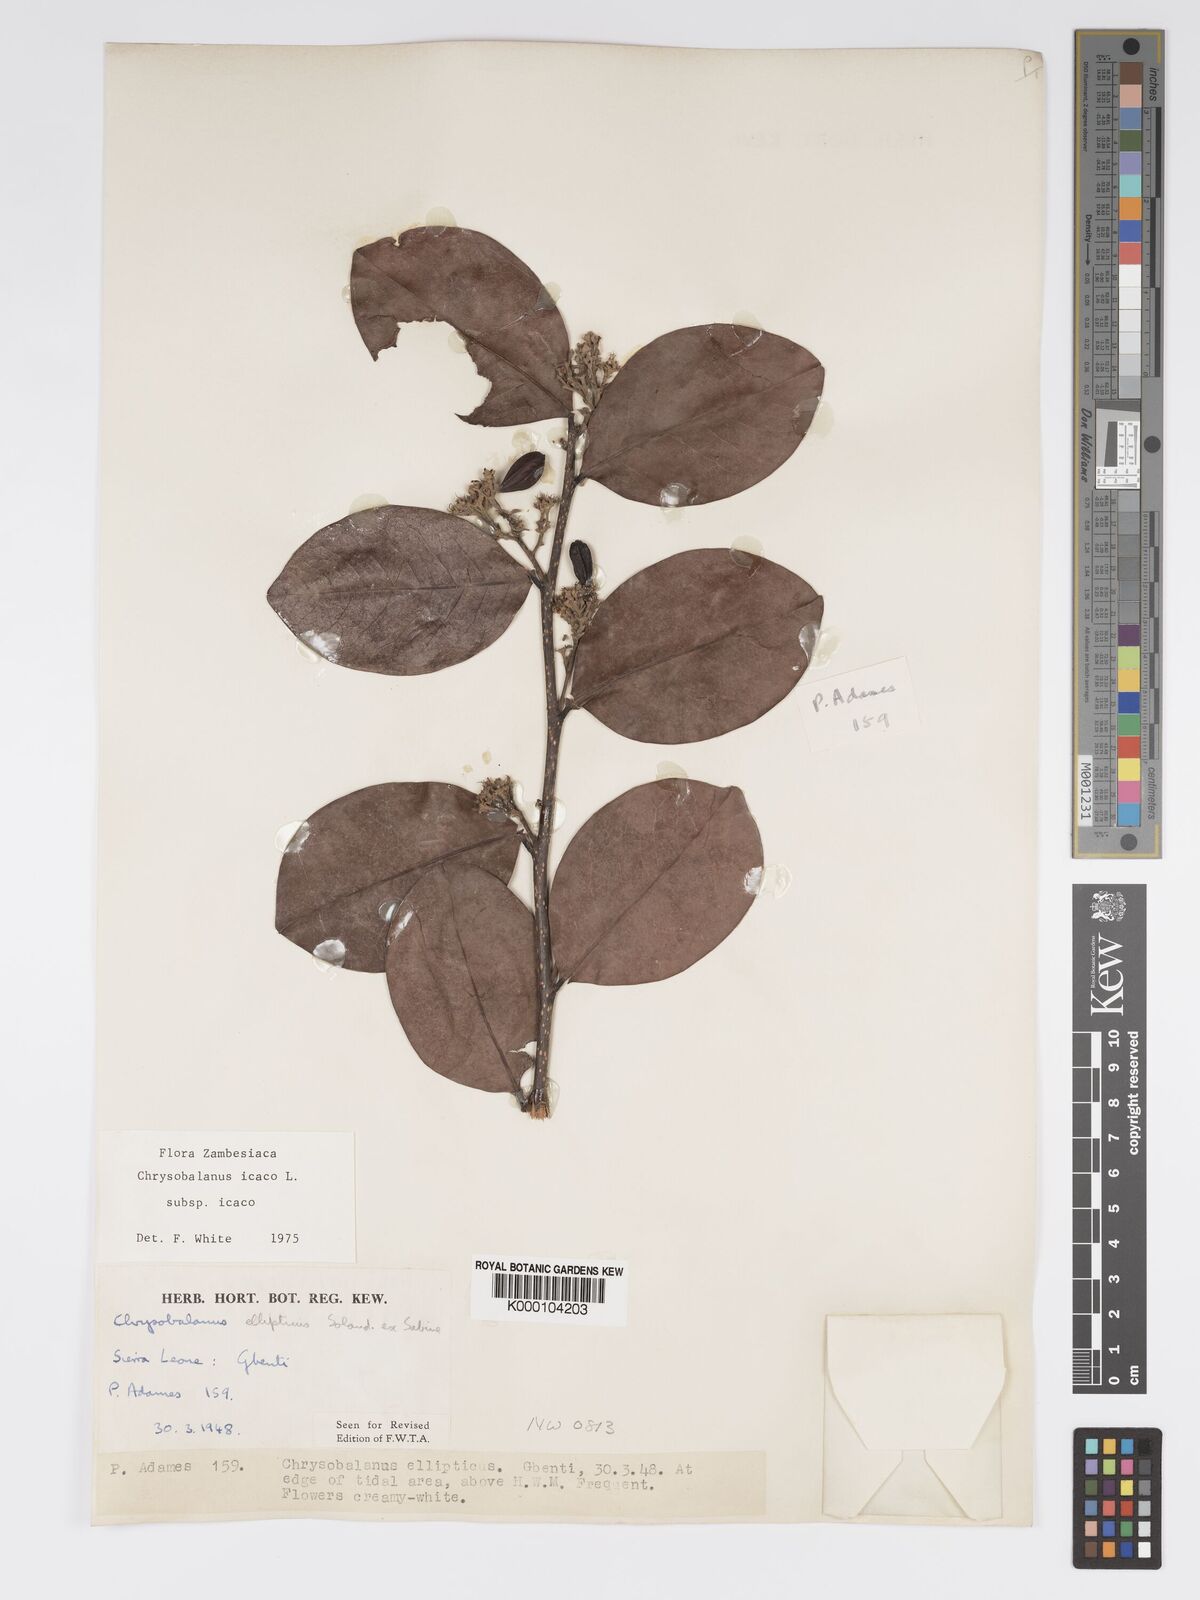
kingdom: Plantae
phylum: Tracheophyta
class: Magnoliopsida
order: Malpighiales
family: Chrysobalanaceae
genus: Chrysobalanus
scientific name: Chrysobalanus icaco
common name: Coco plum
